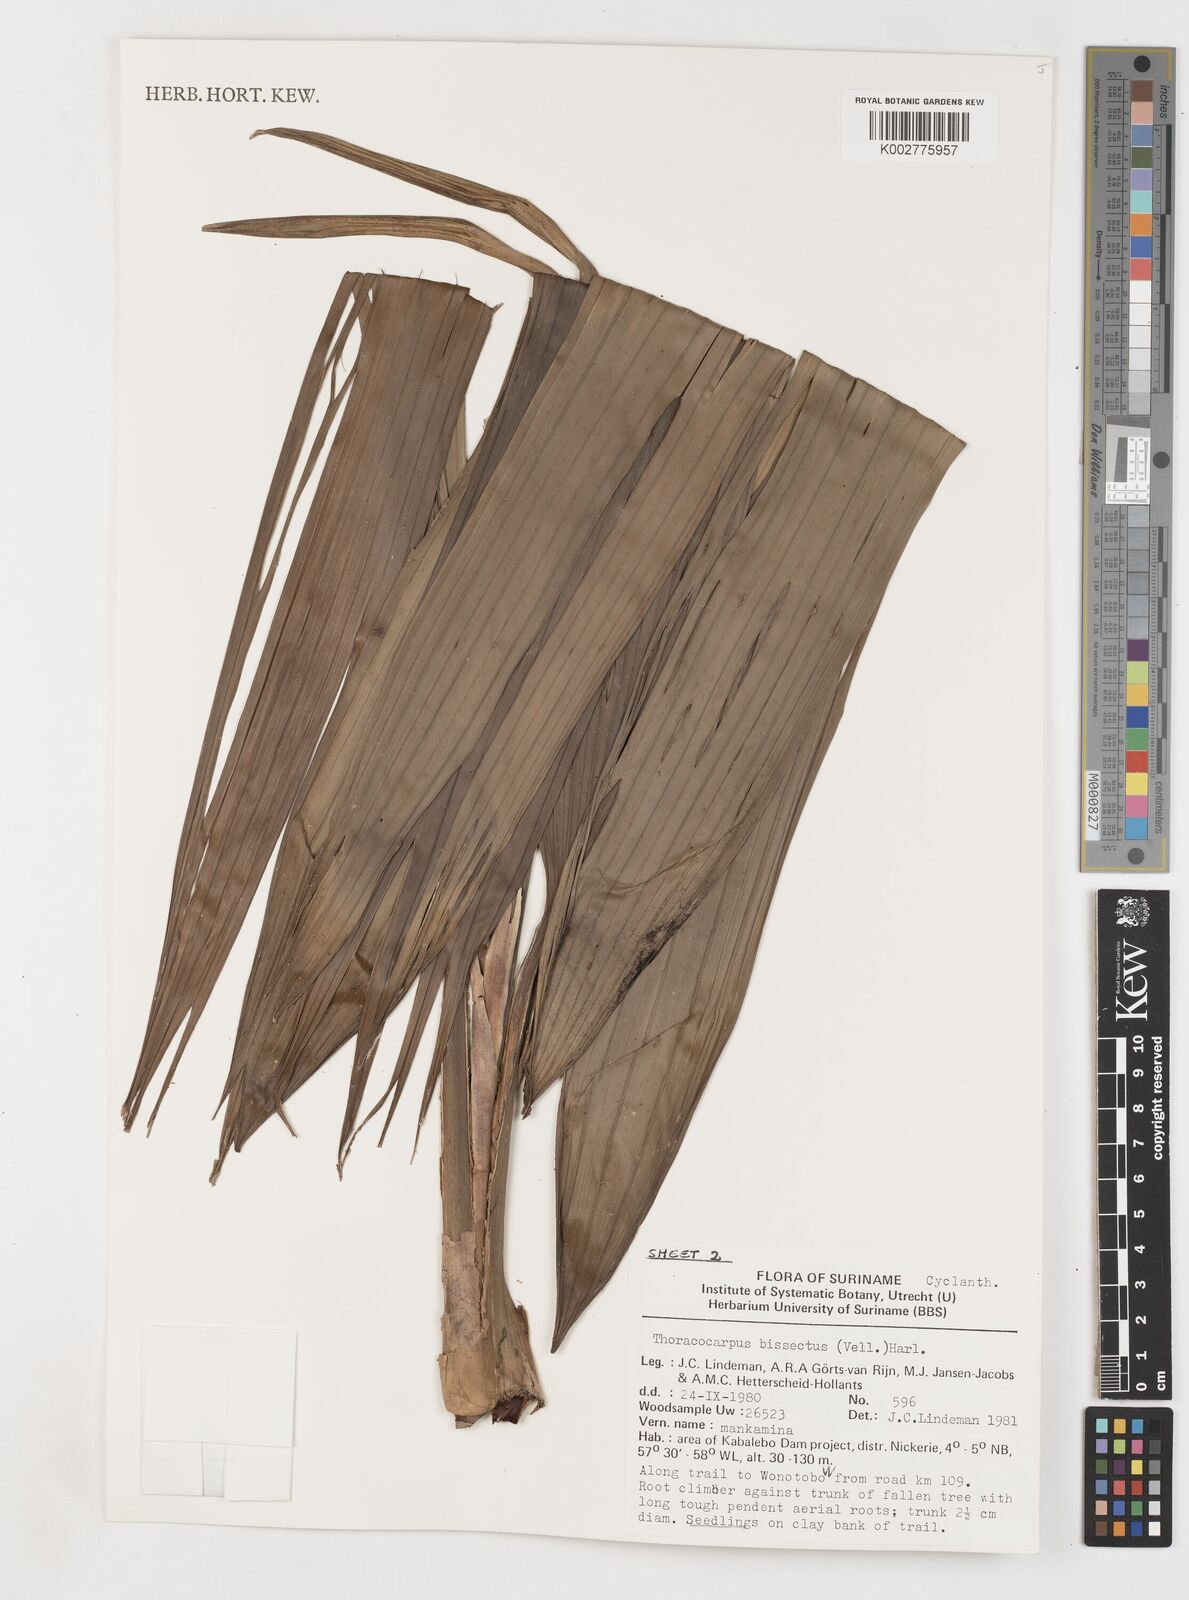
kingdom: Plantae
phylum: Tracheophyta
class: Liliopsida
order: Pandanales
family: Cyclanthaceae
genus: Thoracocarpus
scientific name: Thoracocarpus bissectus
